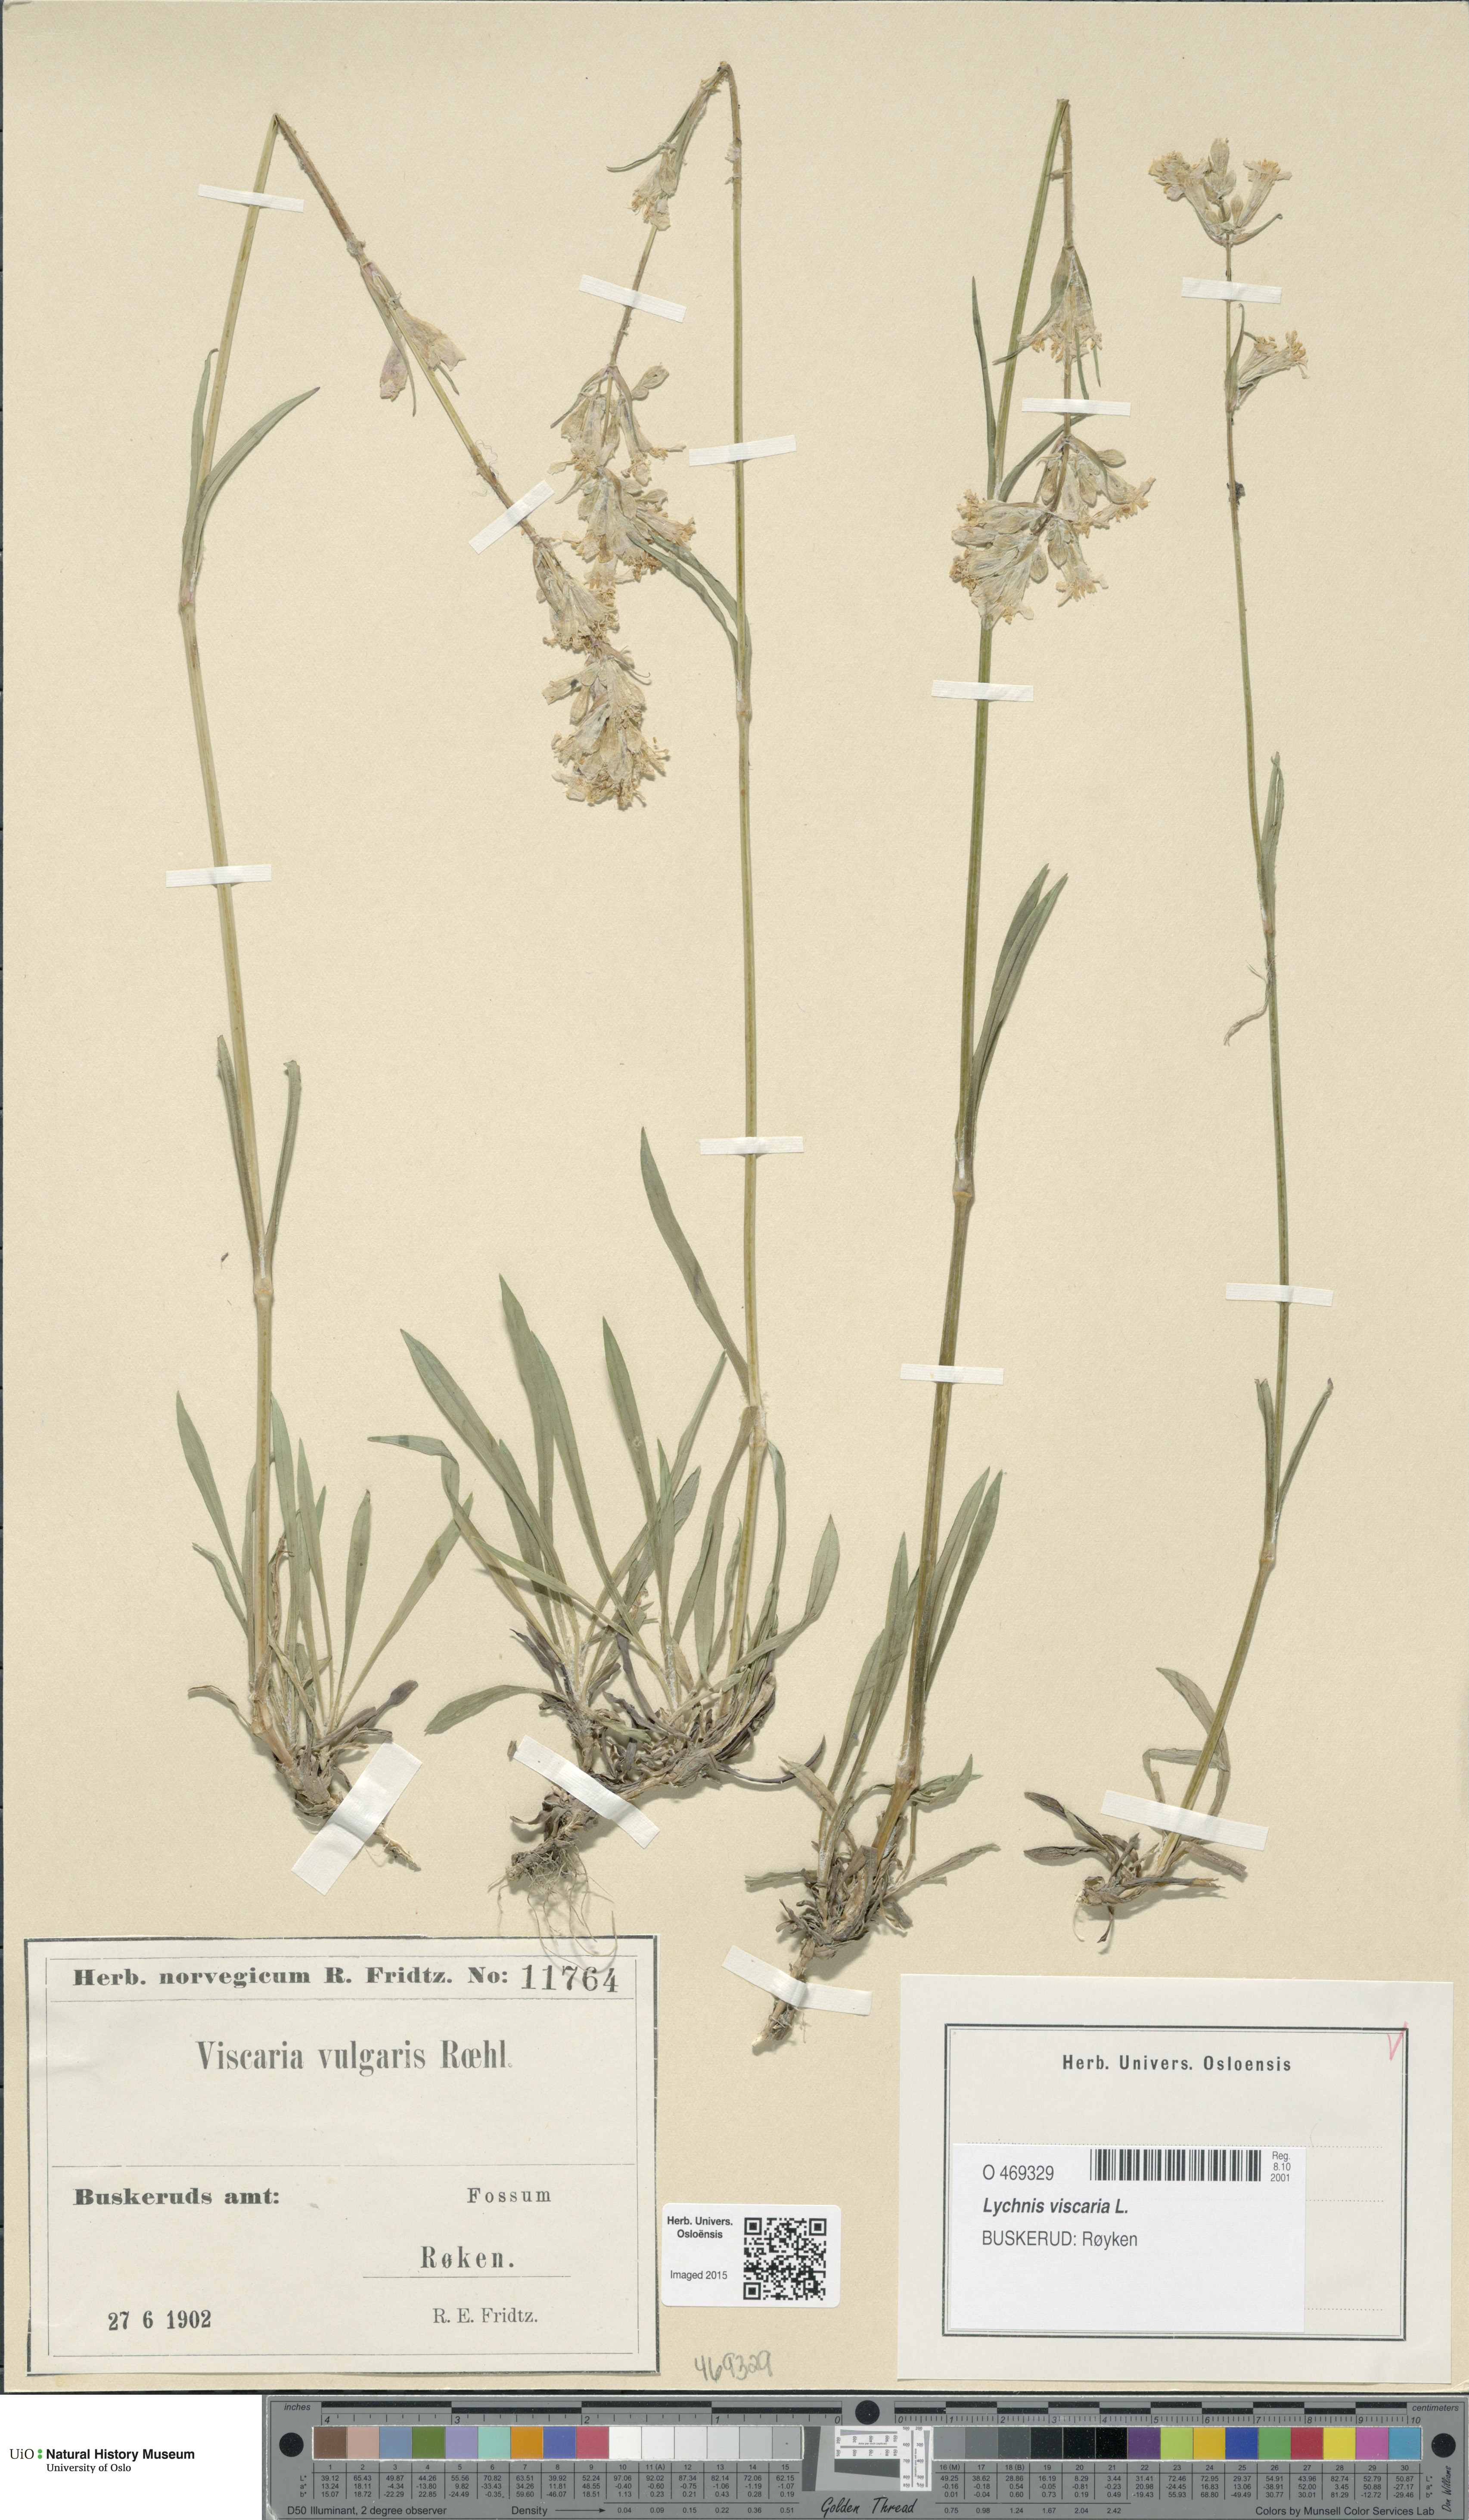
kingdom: Plantae
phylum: Tracheophyta
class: Magnoliopsida
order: Caryophyllales
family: Caryophyllaceae
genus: Viscaria
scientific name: Viscaria vulgaris
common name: Clammy campion
